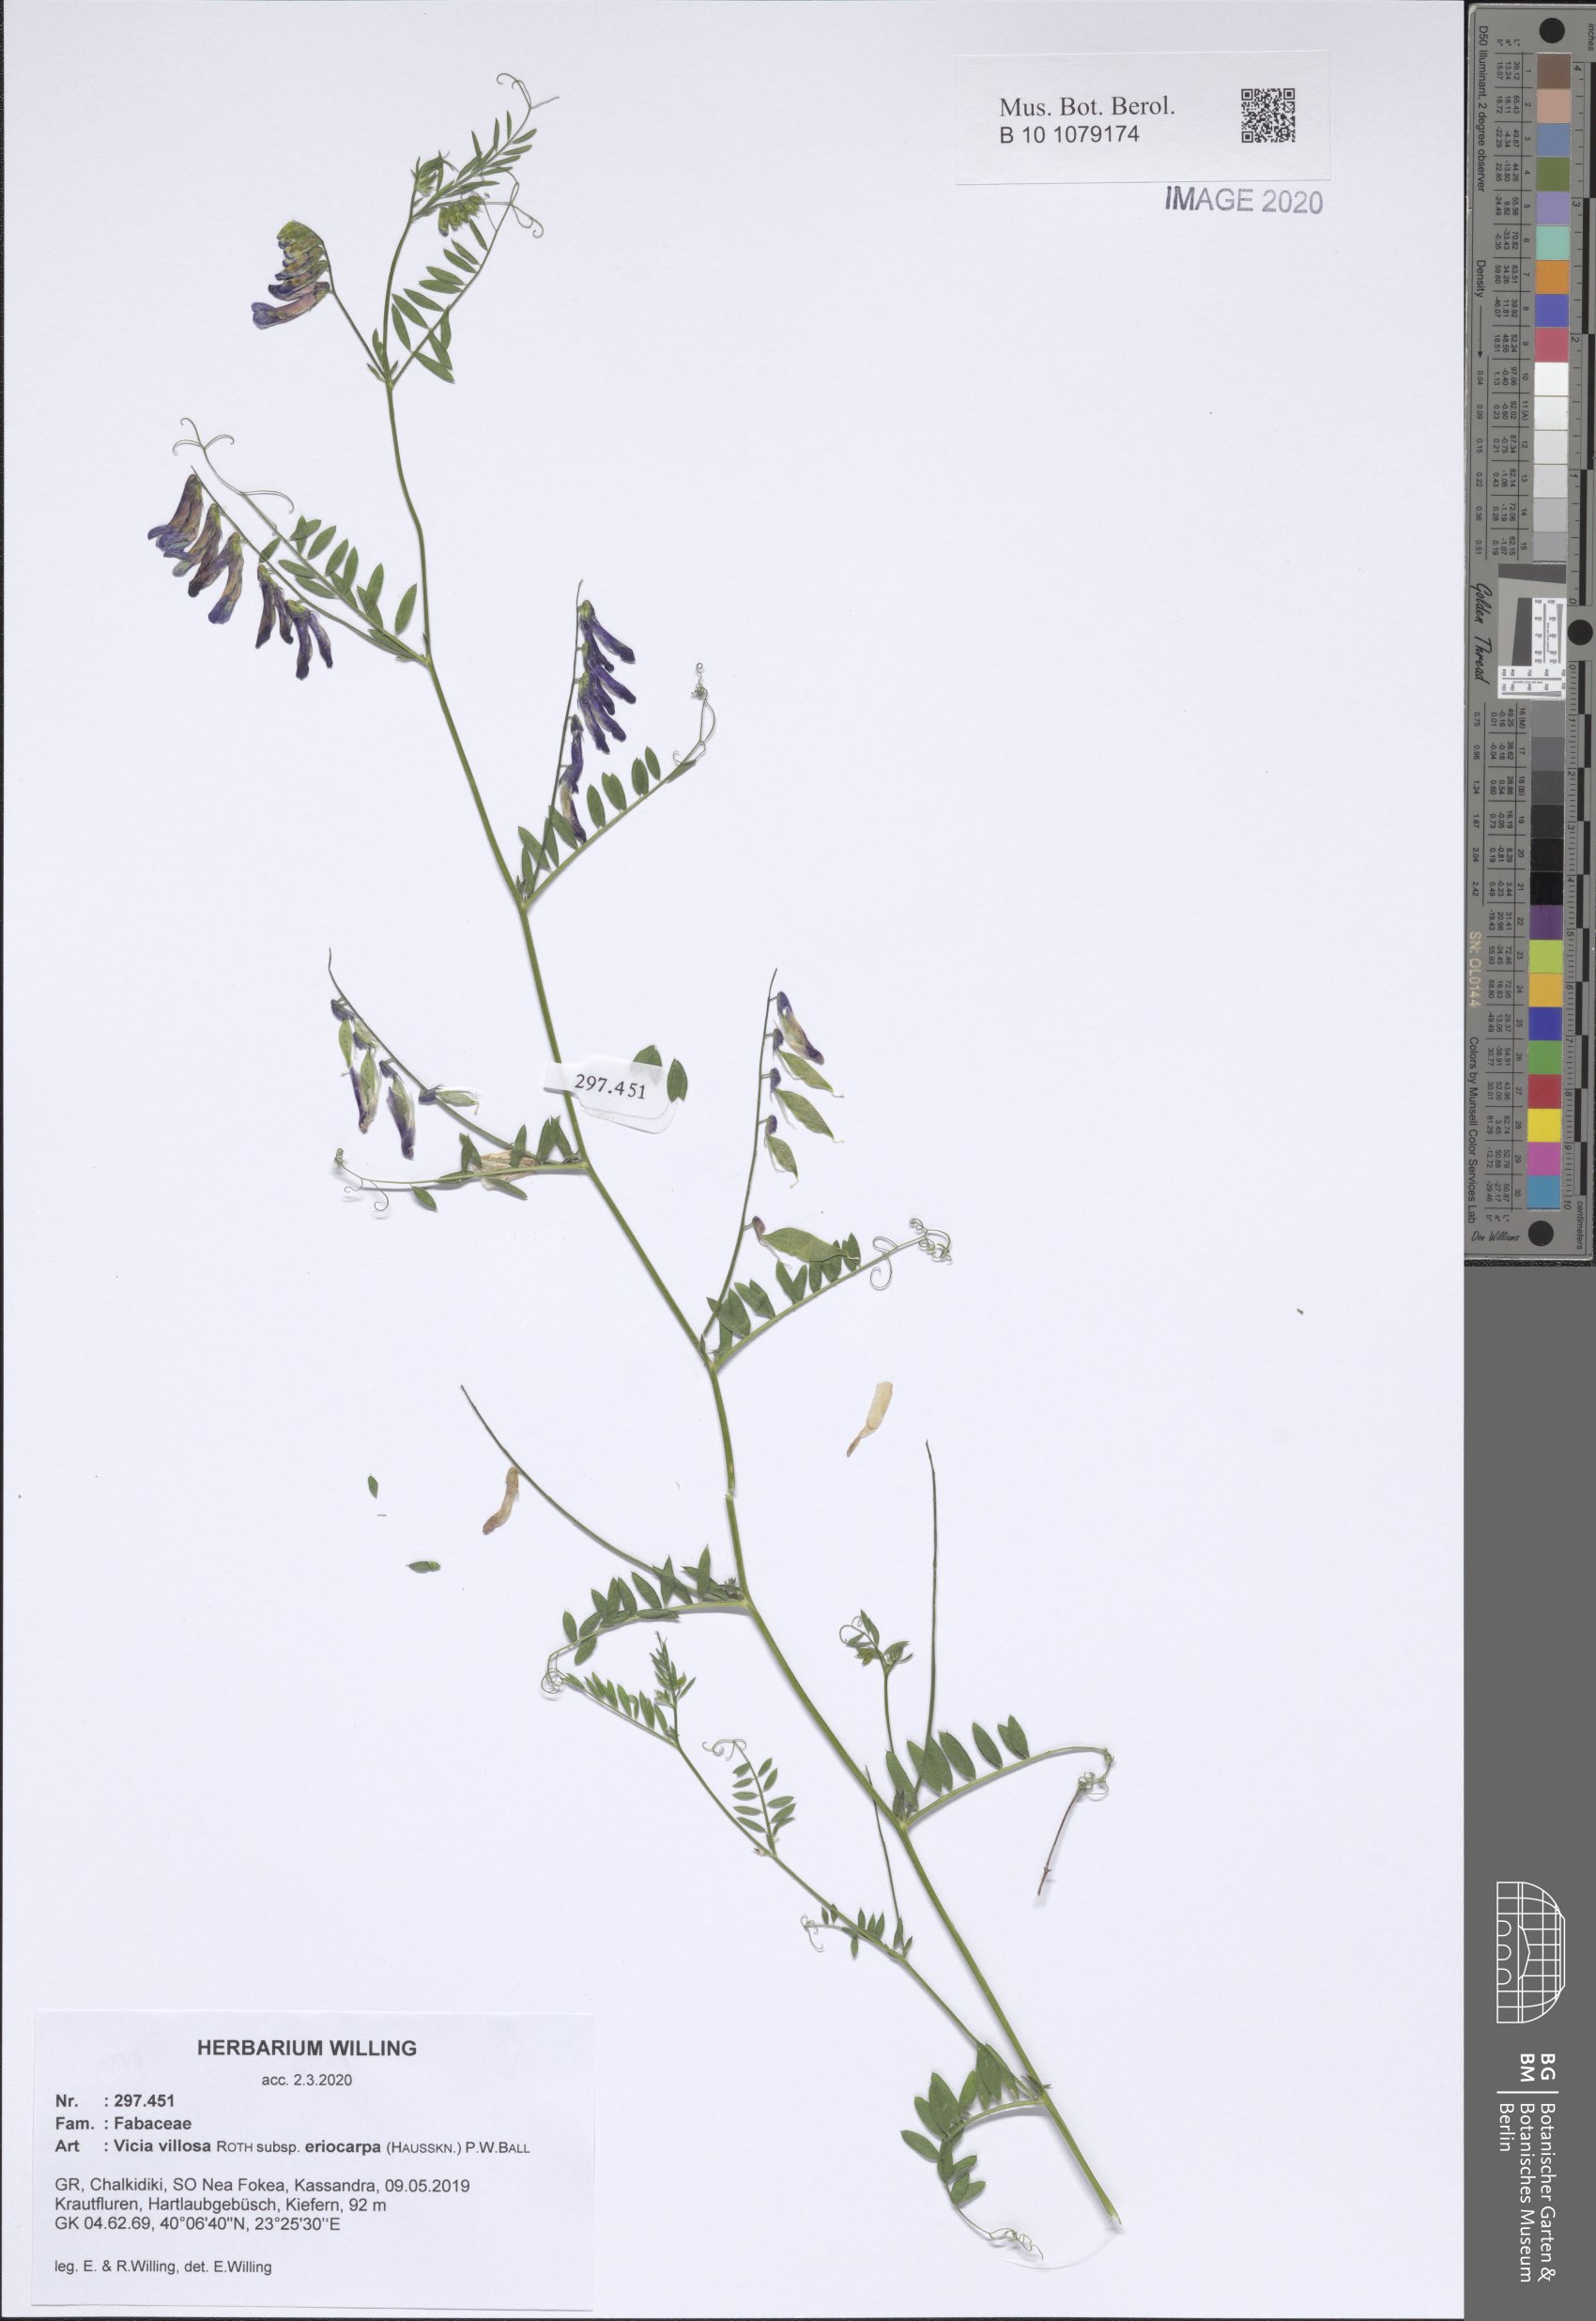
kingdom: Plantae
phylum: Tracheophyta
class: Magnoliopsida
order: Fabales
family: Fabaceae
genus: Vicia
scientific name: Vicia eriocarpa
